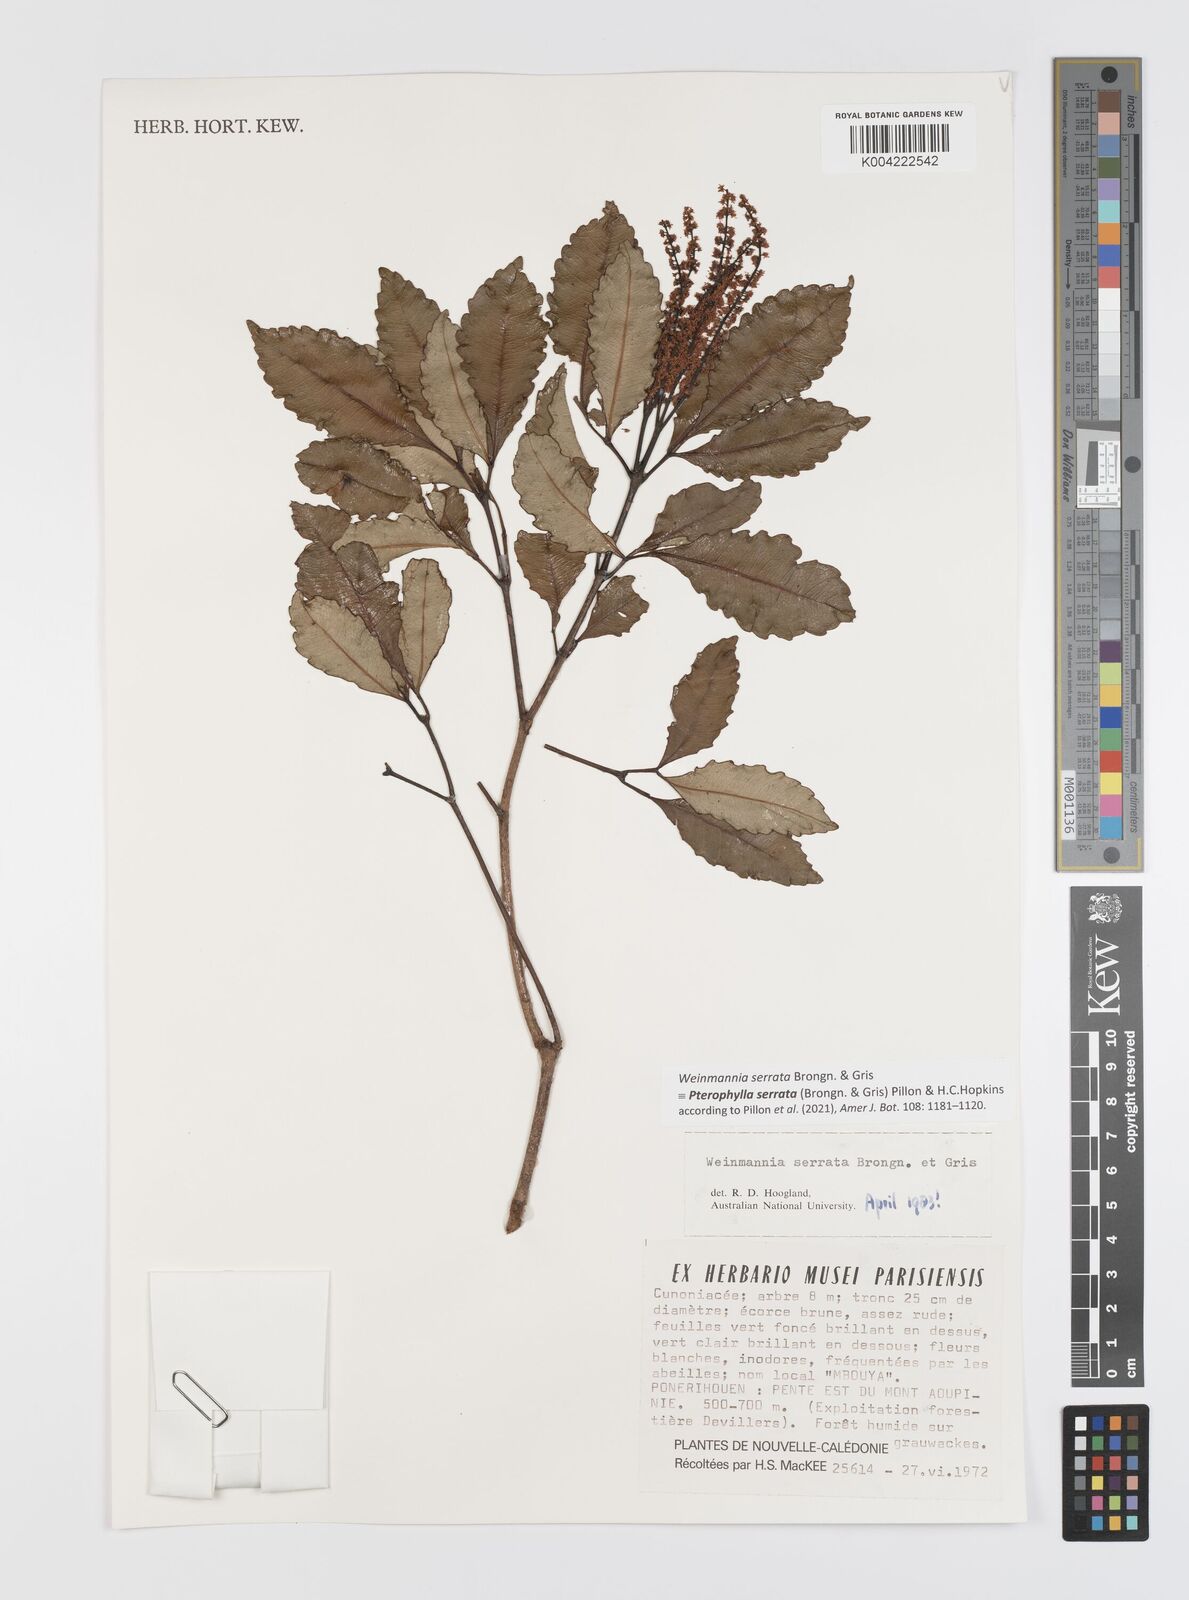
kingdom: Plantae
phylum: Tracheophyta
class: Magnoliopsida
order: Oxalidales
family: Cunoniaceae
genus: Pterophylla
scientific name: Pterophylla serrata
